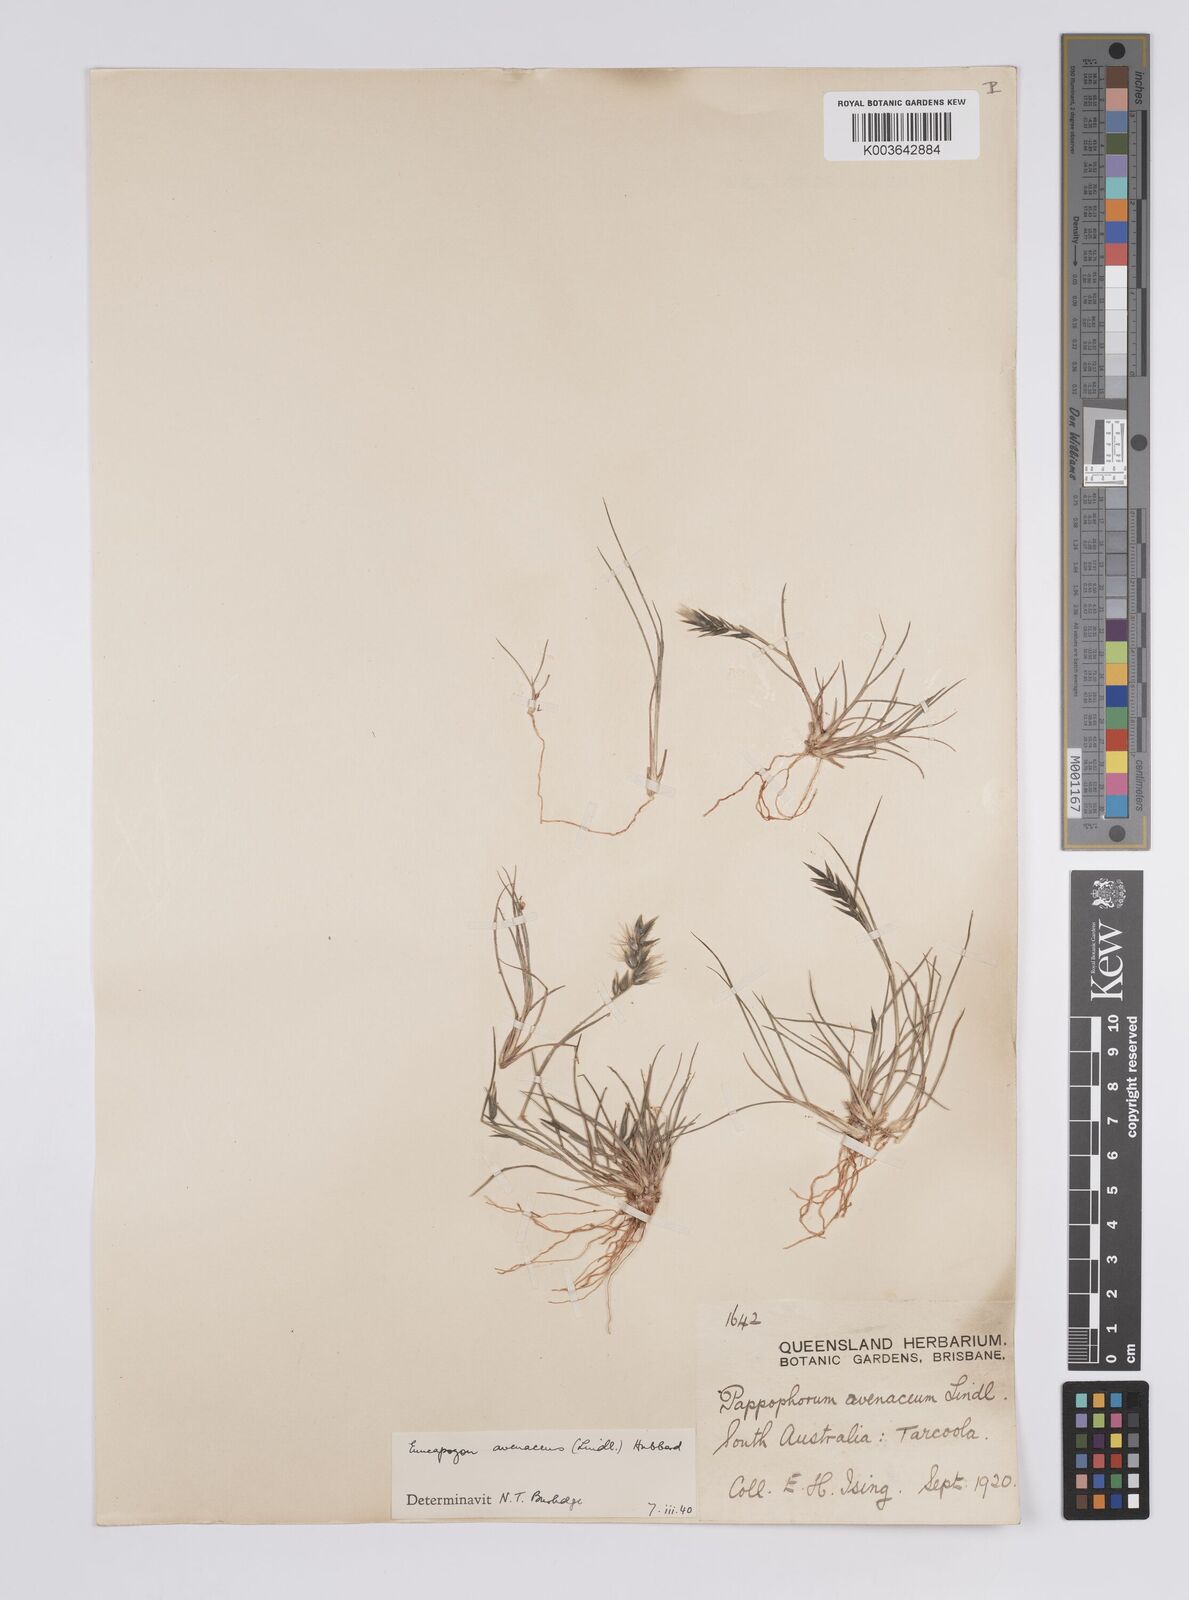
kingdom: Plantae
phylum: Tracheophyta
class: Liliopsida
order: Poales
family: Poaceae
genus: Enneapogon
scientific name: Enneapogon avenaceus
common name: Hairy oat grass
